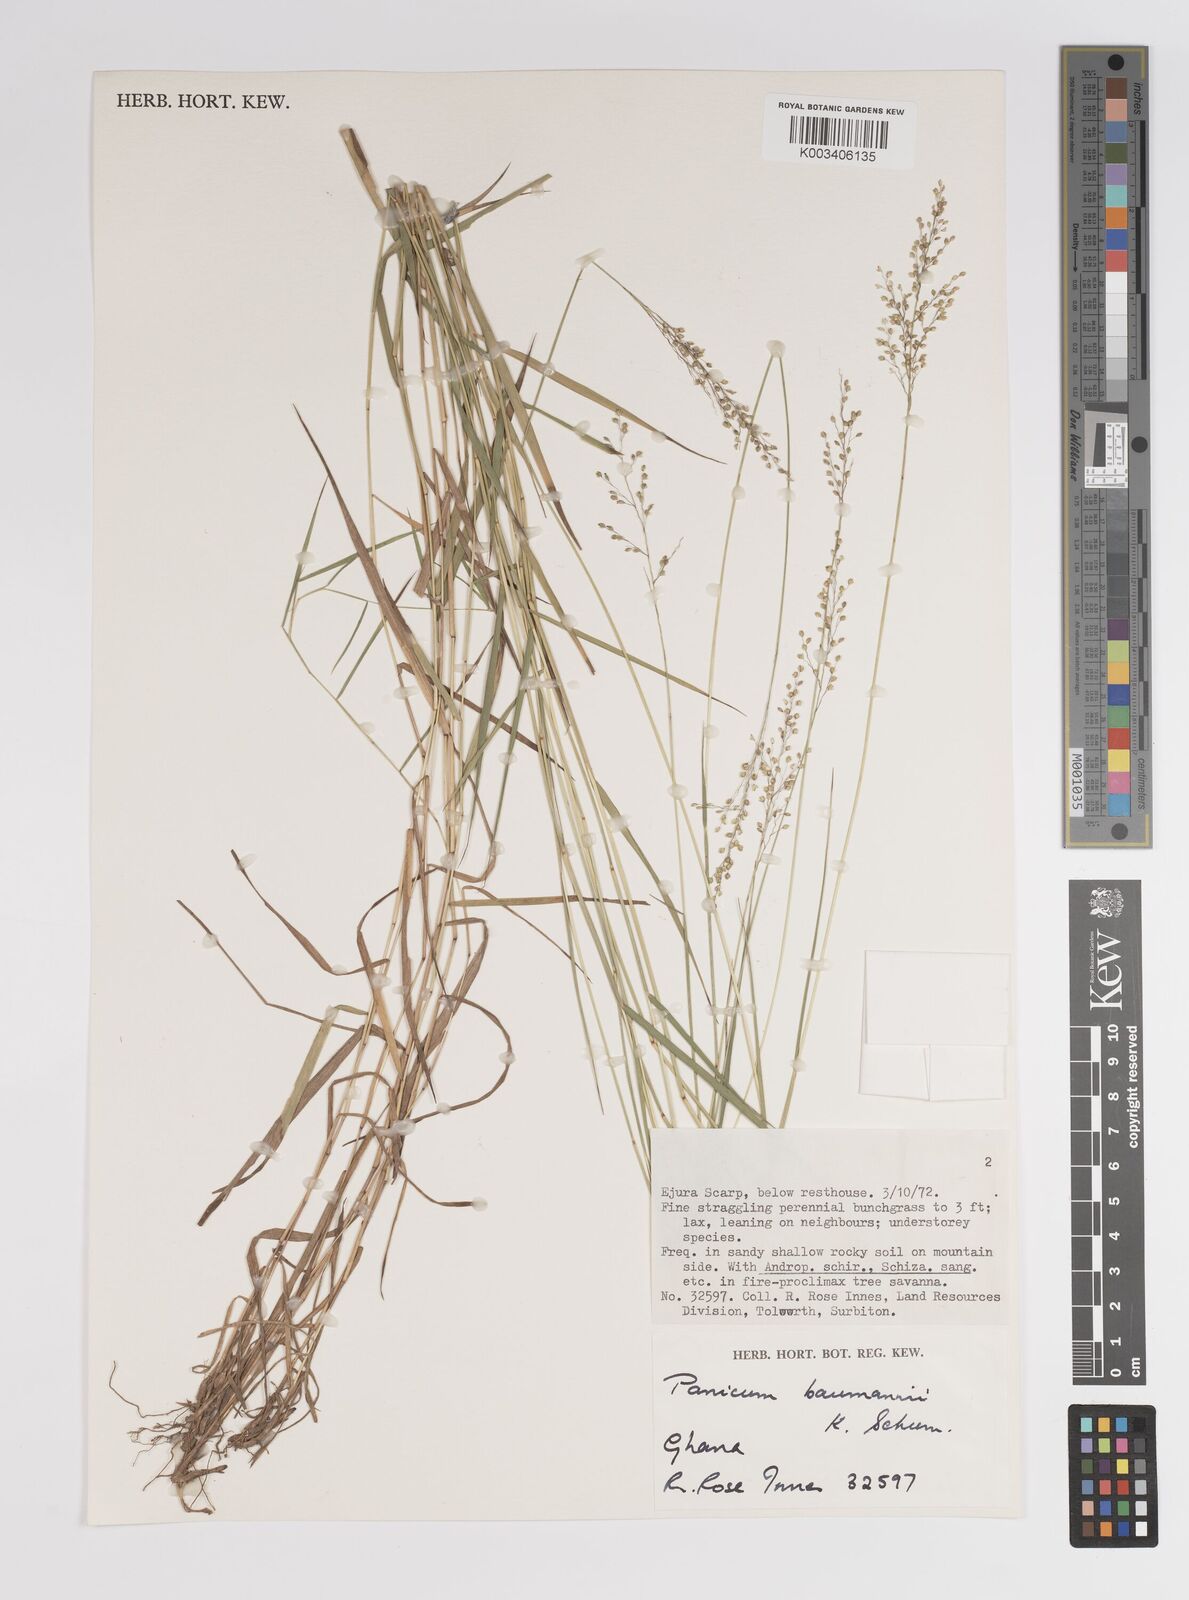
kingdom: Plantae
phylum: Tracheophyta
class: Liliopsida
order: Poales
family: Poaceae
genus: Trichanthecium
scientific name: Trichanthecium nervatum
